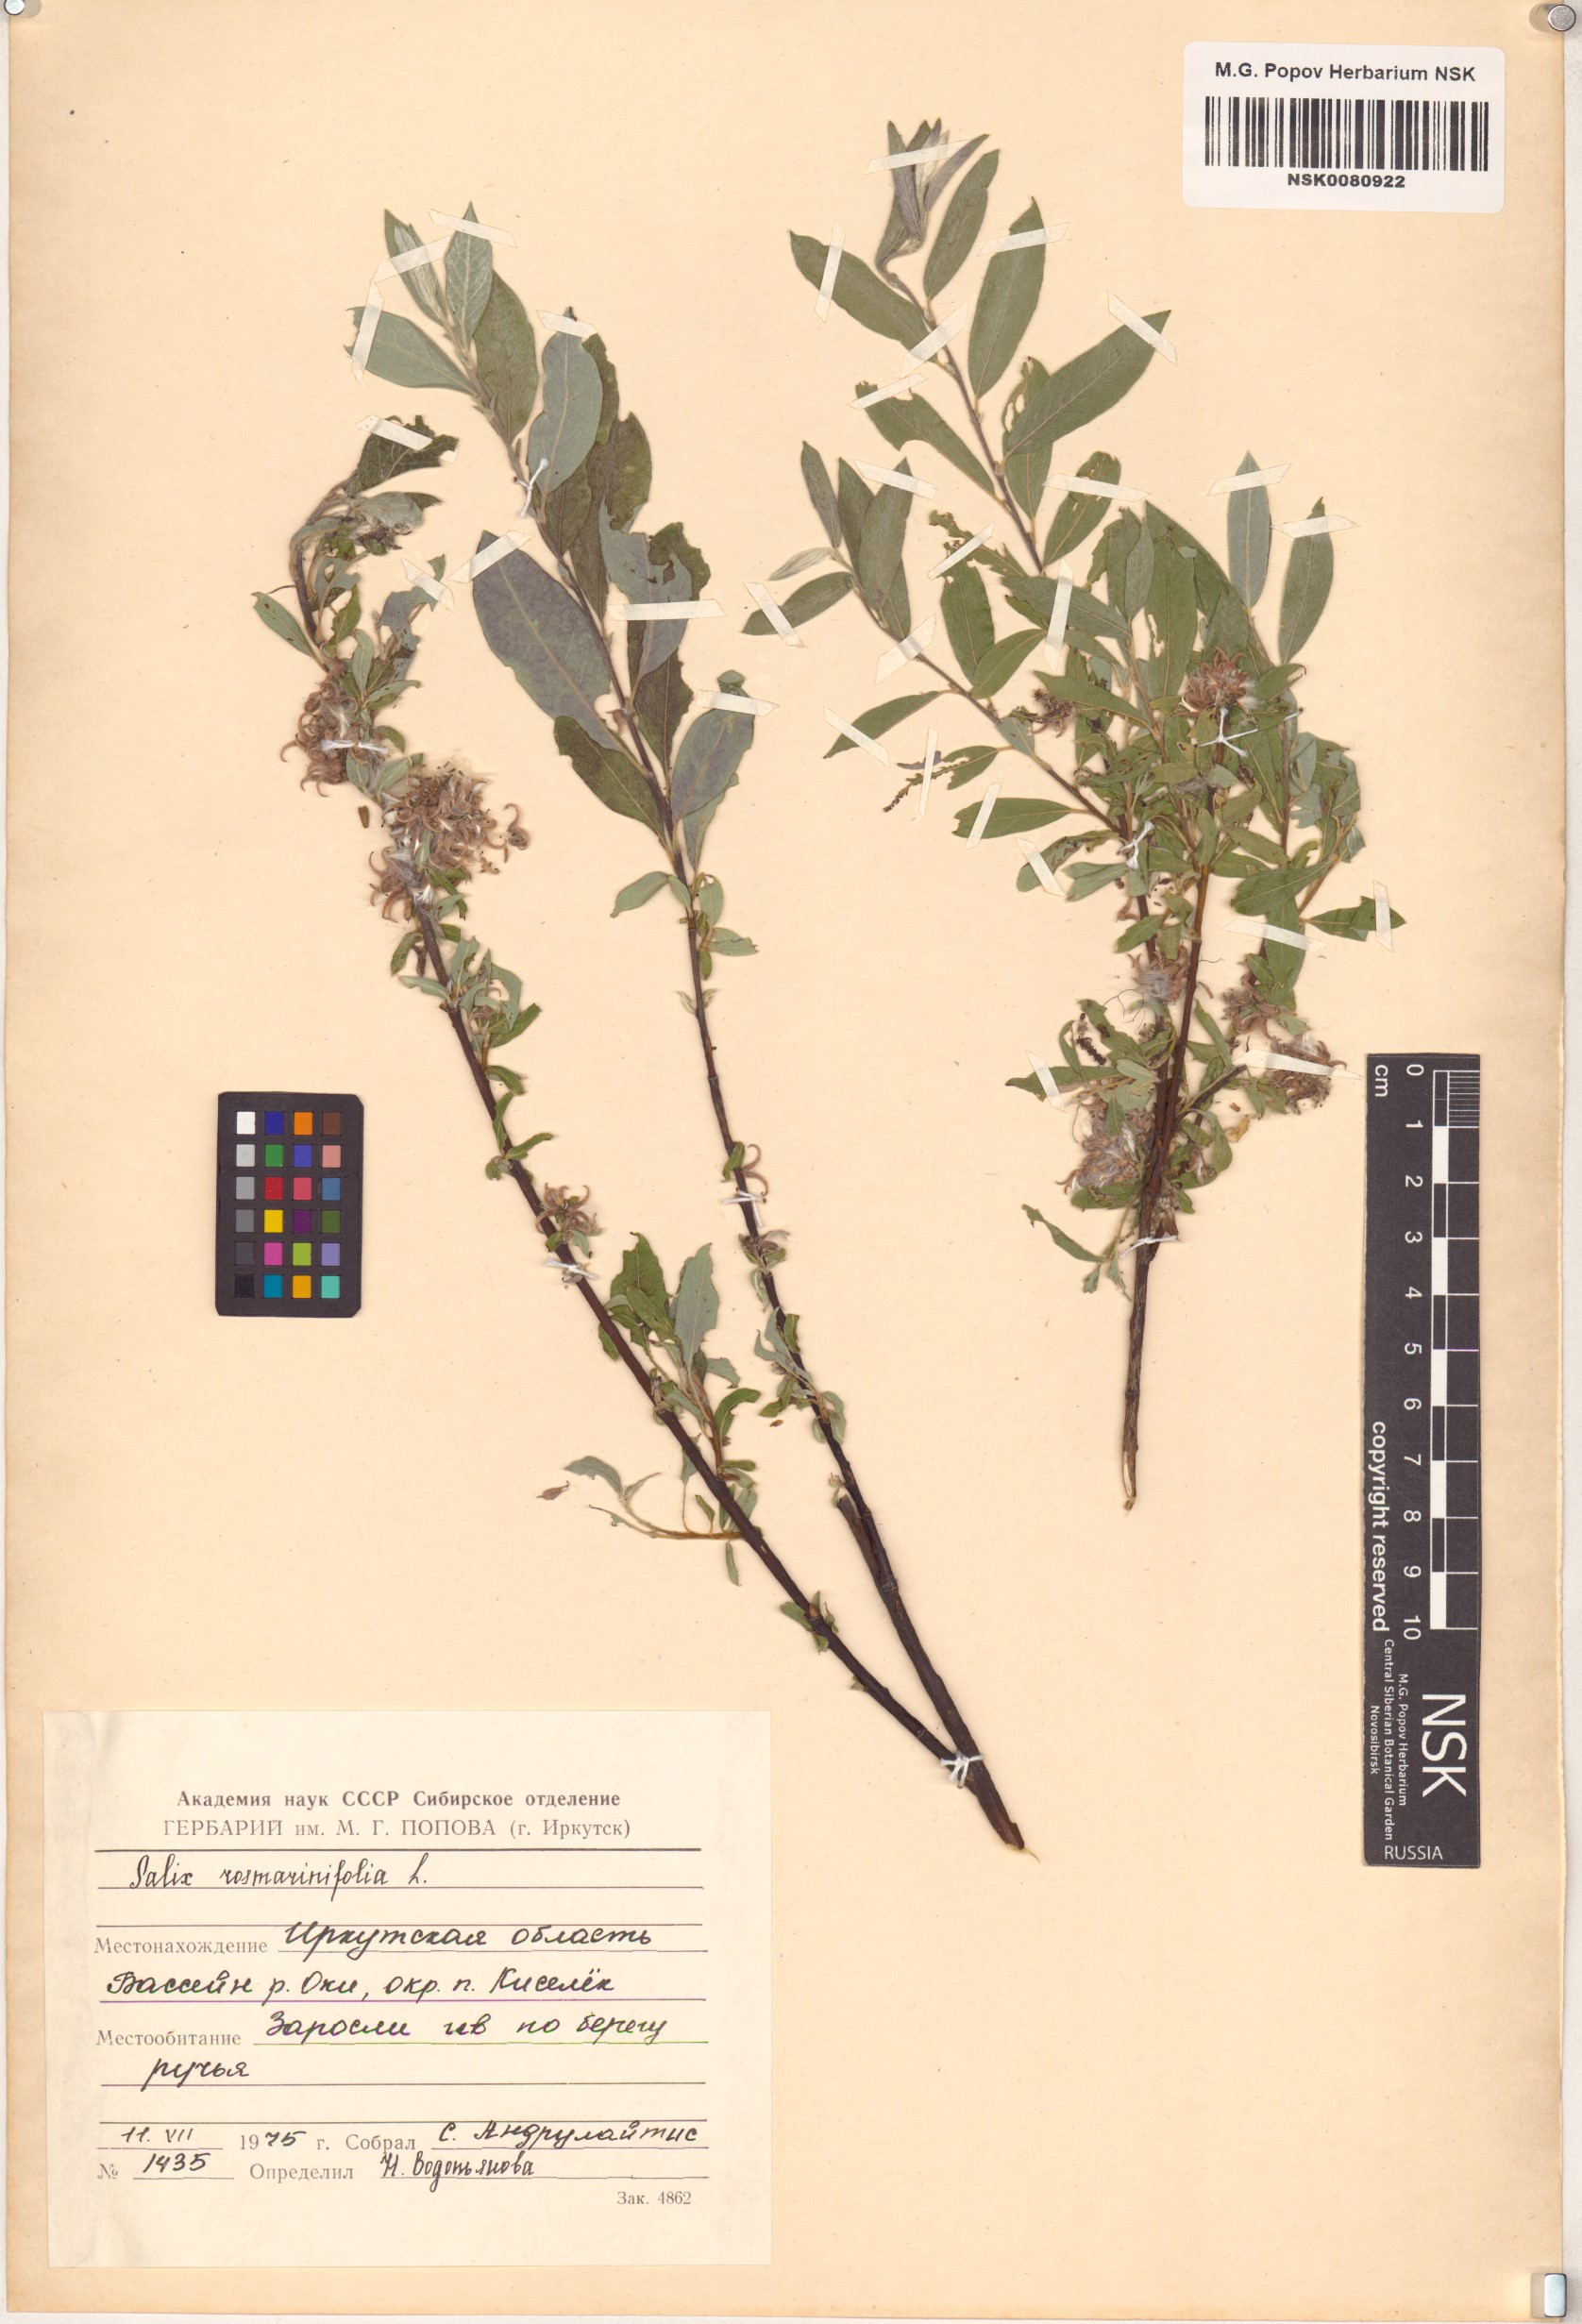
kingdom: Plantae
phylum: Tracheophyta
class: Magnoliopsida
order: Malpighiales
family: Salicaceae
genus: Salix
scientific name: Salix rosmarinifolia
